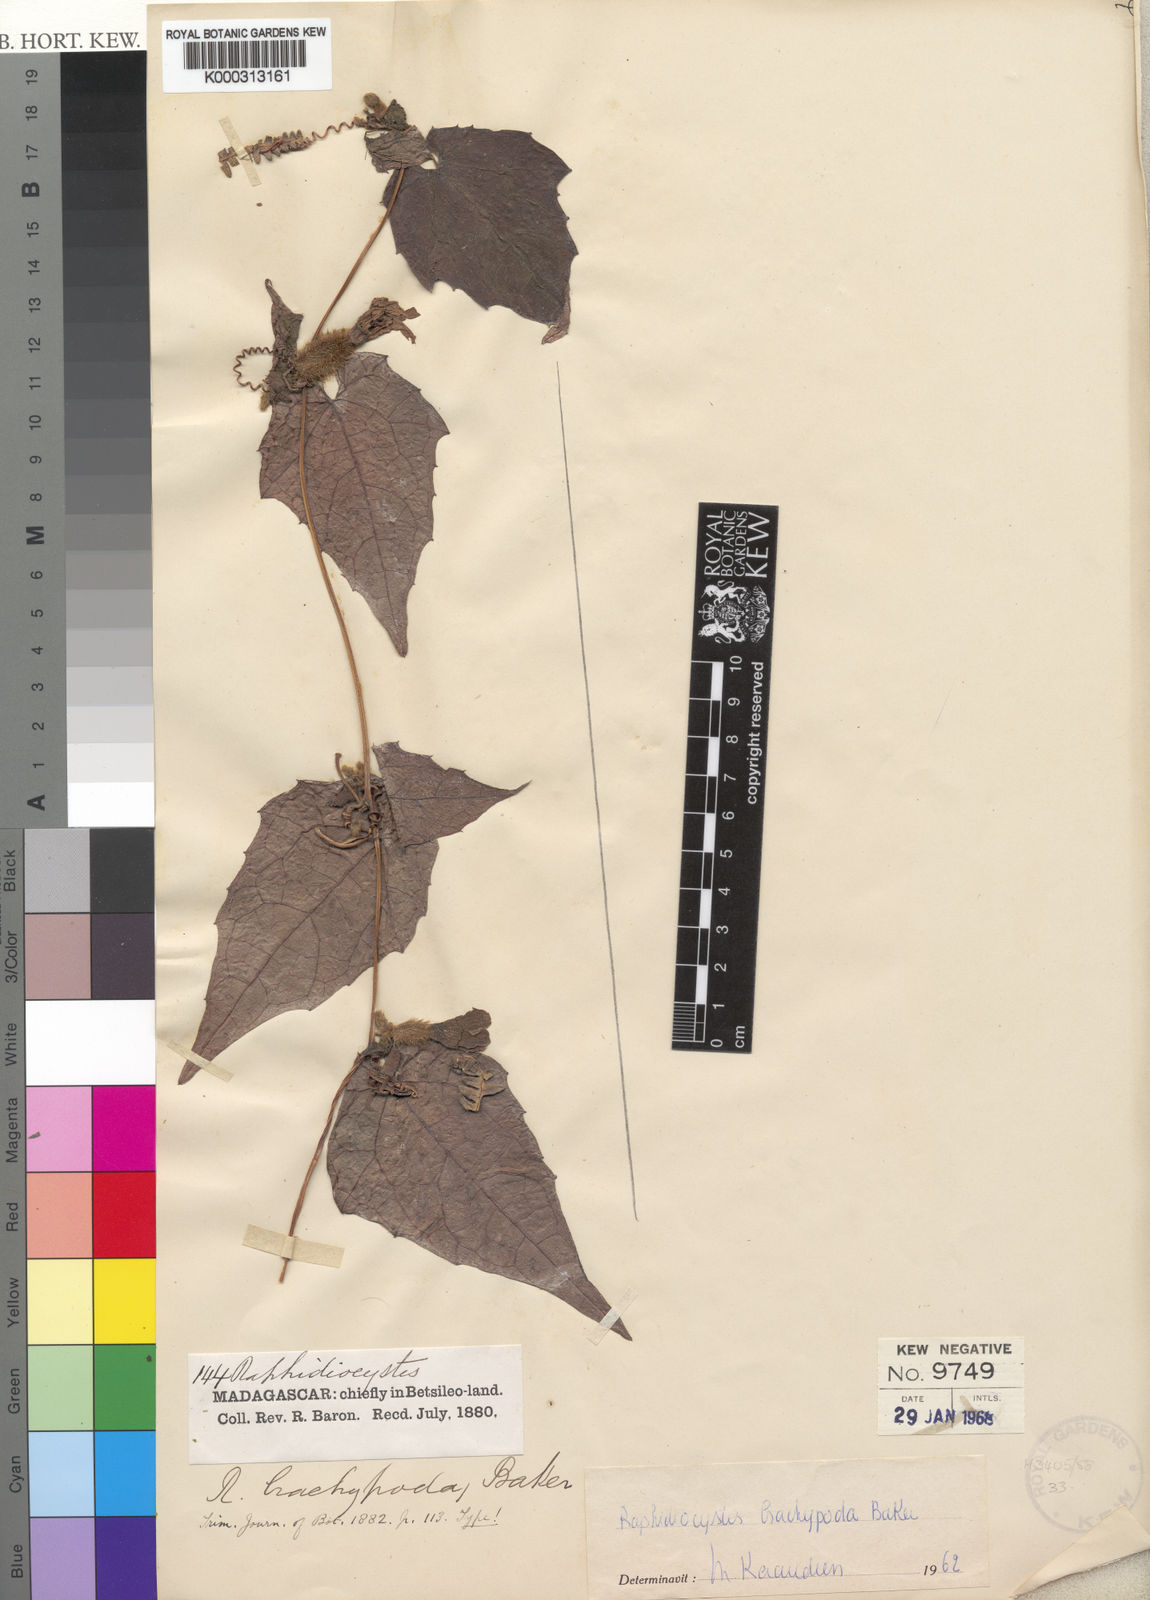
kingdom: Plantae
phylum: Tracheophyta
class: Magnoliopsida
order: Cucurbitales
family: Cucurbitaceae
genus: Raphidiocystis
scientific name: Raphidiocystis brachypoda
